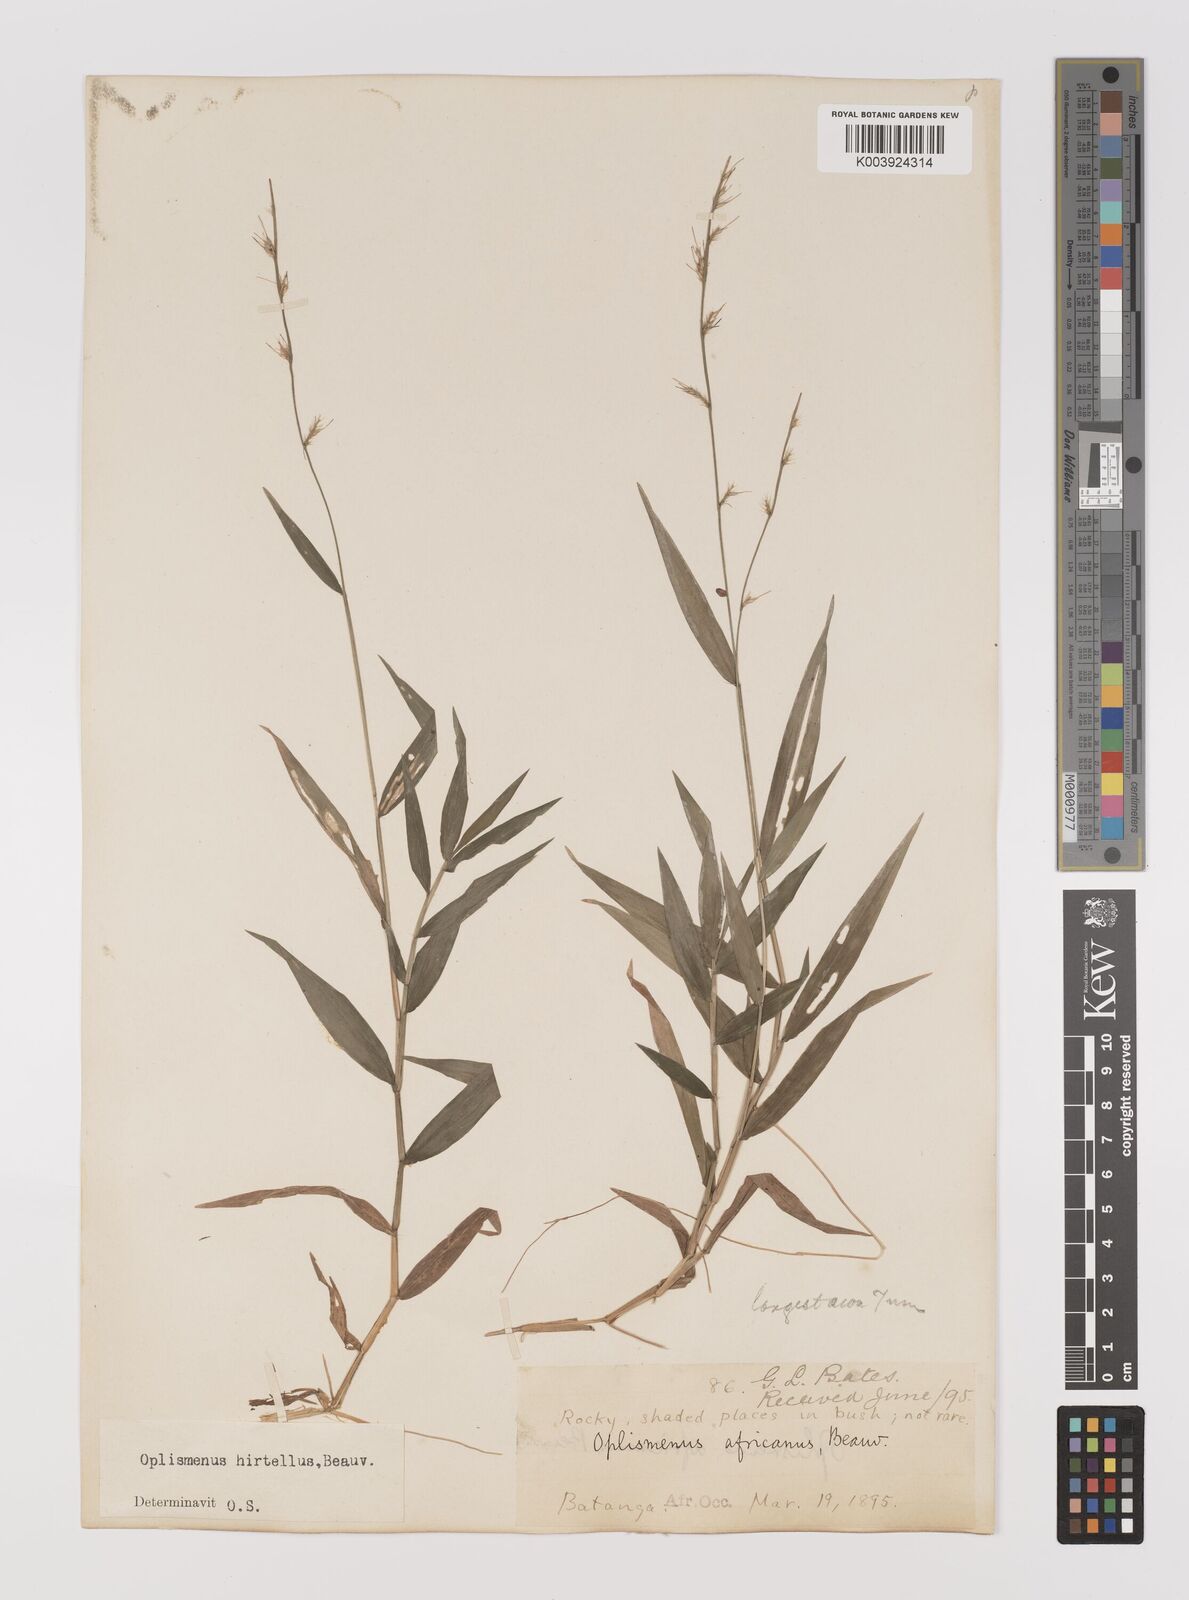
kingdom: Plantae
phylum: Tracheophyta
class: Liliopsida
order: Poales
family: Poaceae
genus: Oplismenus
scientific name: Oplismenus hirtellus
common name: Basketgrass
